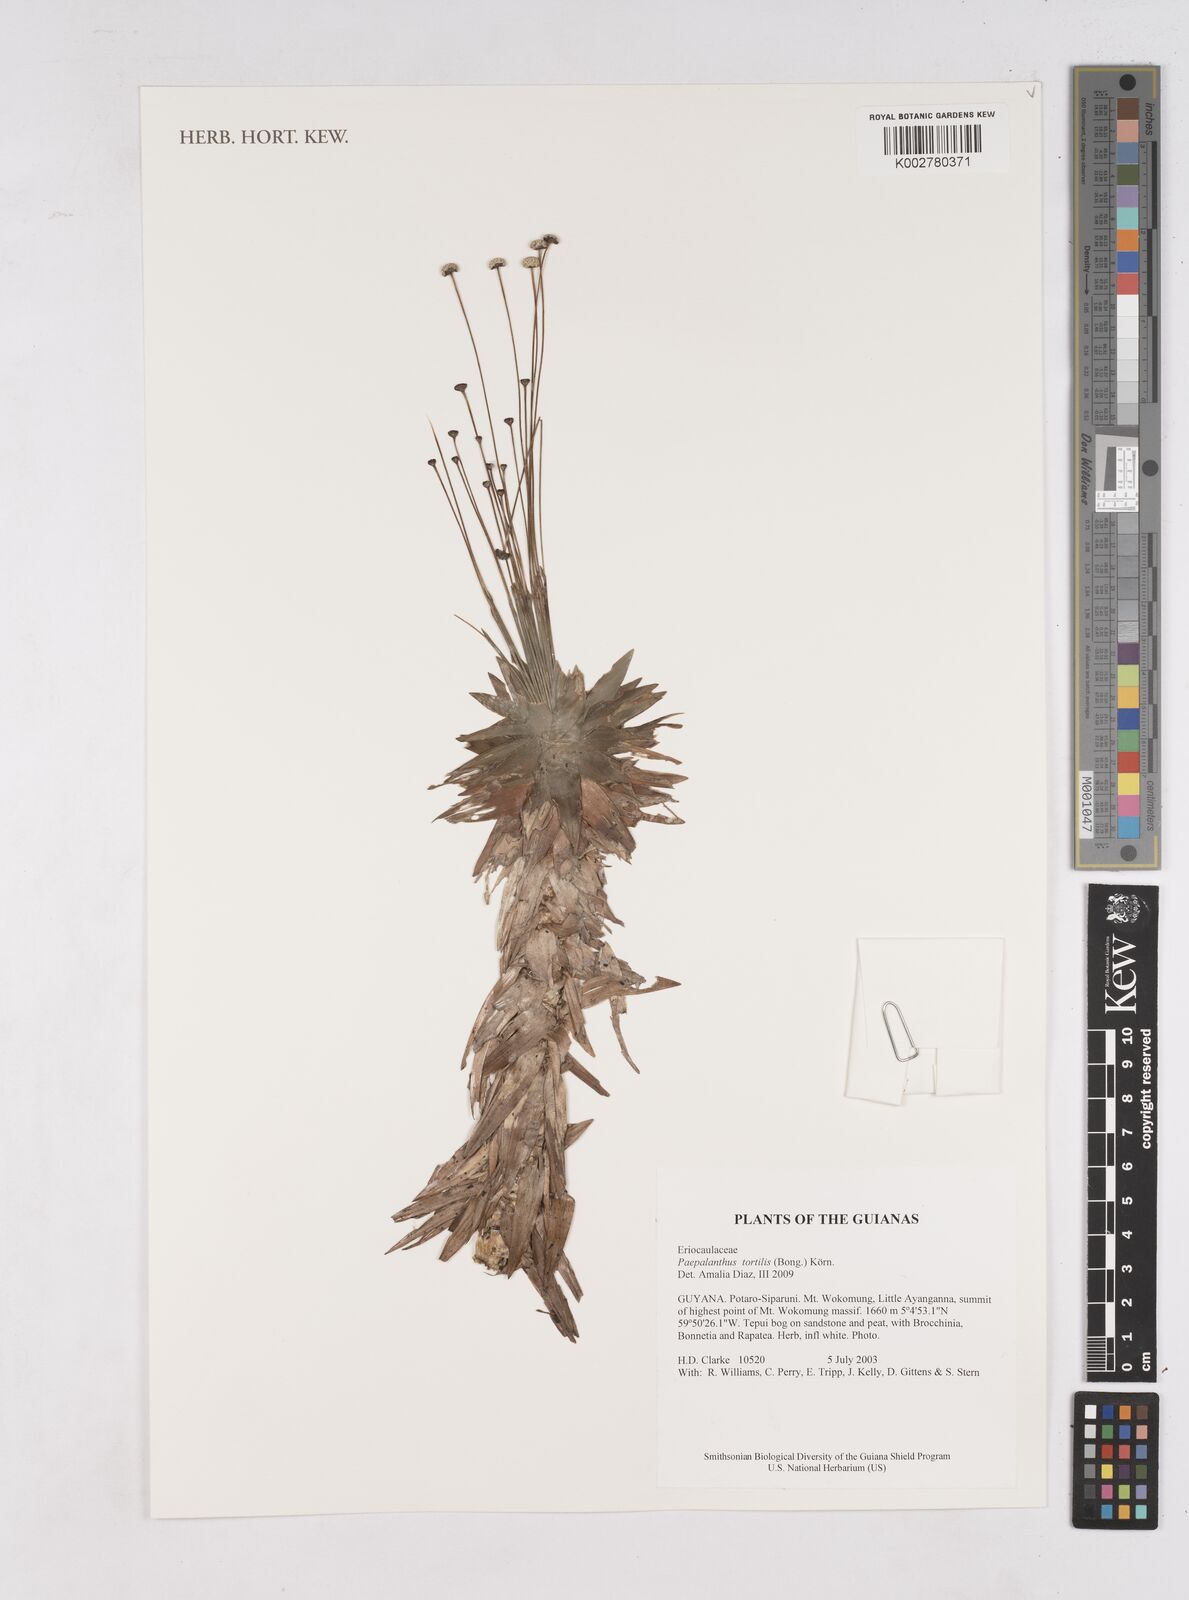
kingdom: Plantae
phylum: Tracheophyta
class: Liliopsida
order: Poales
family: Eriocaulaceae
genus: Paepalanthus
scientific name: Paepalanthus tortilis
